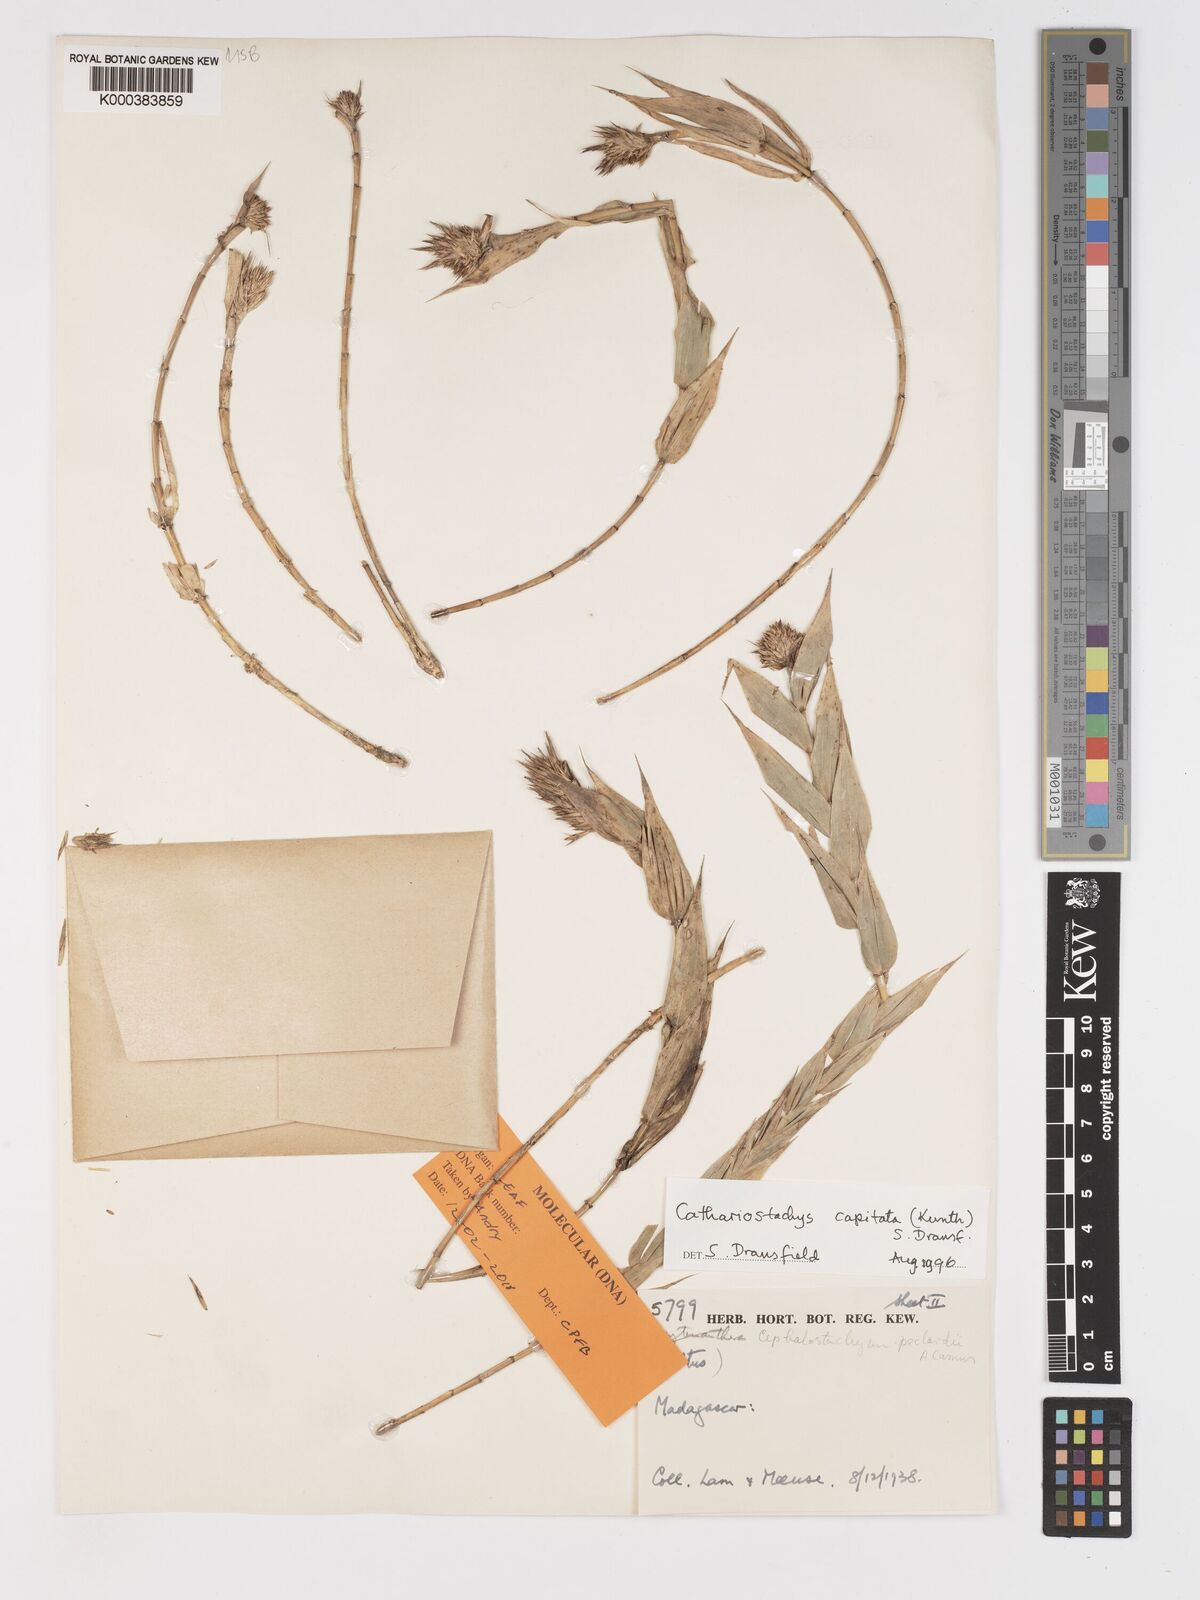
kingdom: Plantae
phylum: Tracheophyta
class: Liliopsida
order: Poales
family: Poaceae
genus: Cathariostachys
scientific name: Cathariostachys capitata
